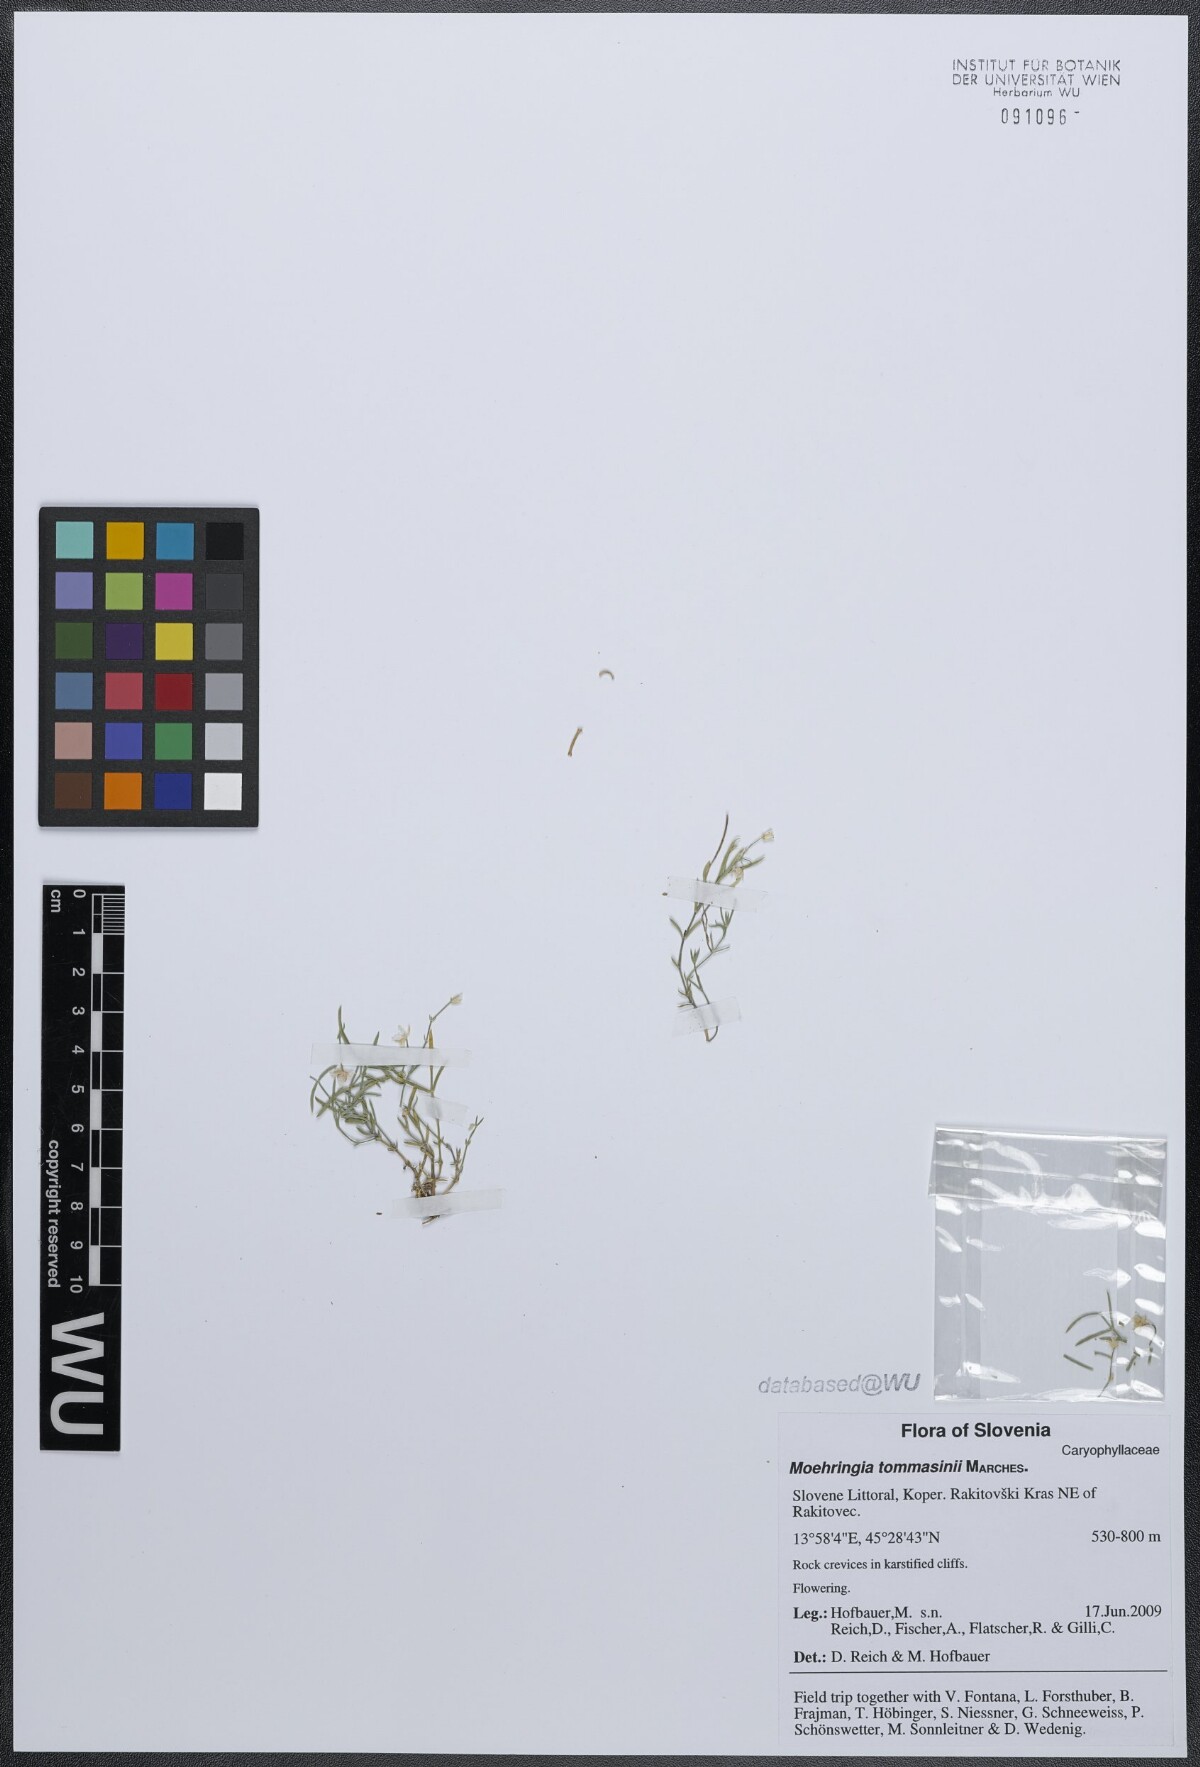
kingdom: Plantae
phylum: Tracheophyta
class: Magnoliopsida
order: Caryophyllales
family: Caryophyllaceae
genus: Moehringia
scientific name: Moehringia tommasinii
